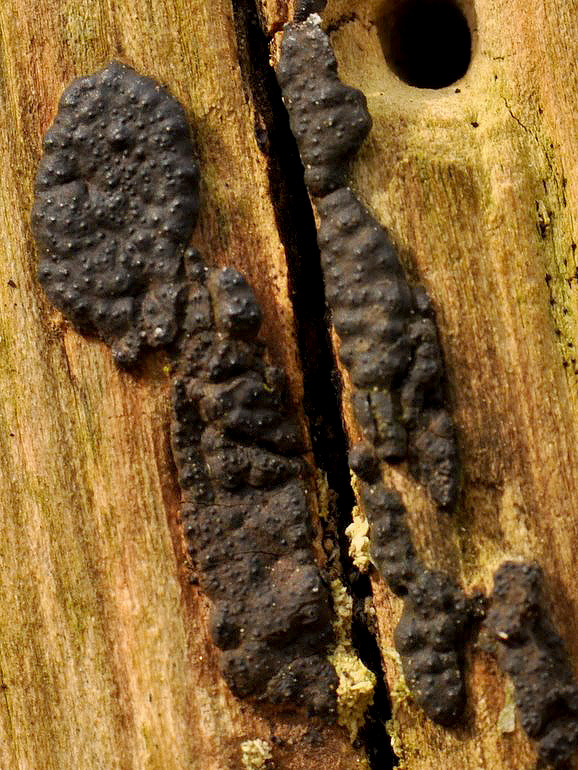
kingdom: Fungi
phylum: Ascomycota
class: Sordariomycetes
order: Xylariales
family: Xylariaceae
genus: Nemania
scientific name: Nemania serpens
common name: almindelig kuldyne
